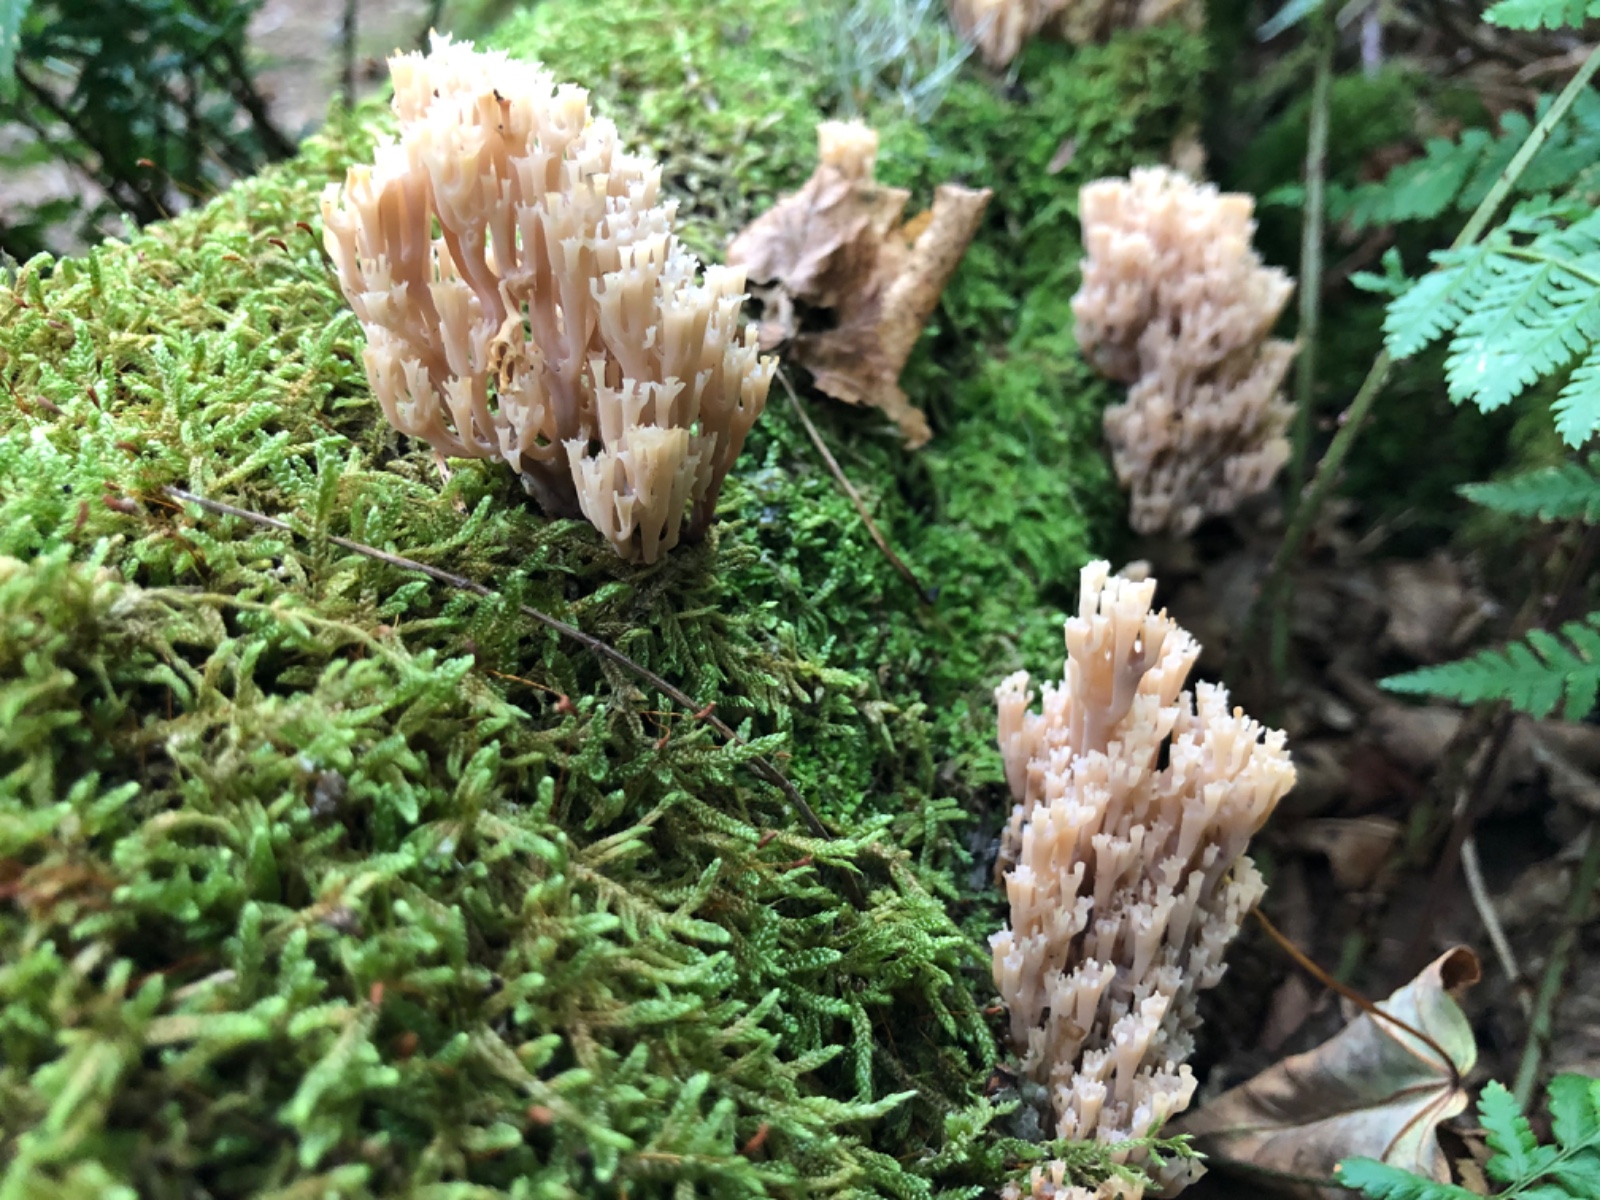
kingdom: Fungi
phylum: Basidiomycota
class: Agaricomycetes
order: Russulales
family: Auriscalpiaceae
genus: Artomyces
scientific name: Artomyces pyxidatus
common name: kandelabersvamp
